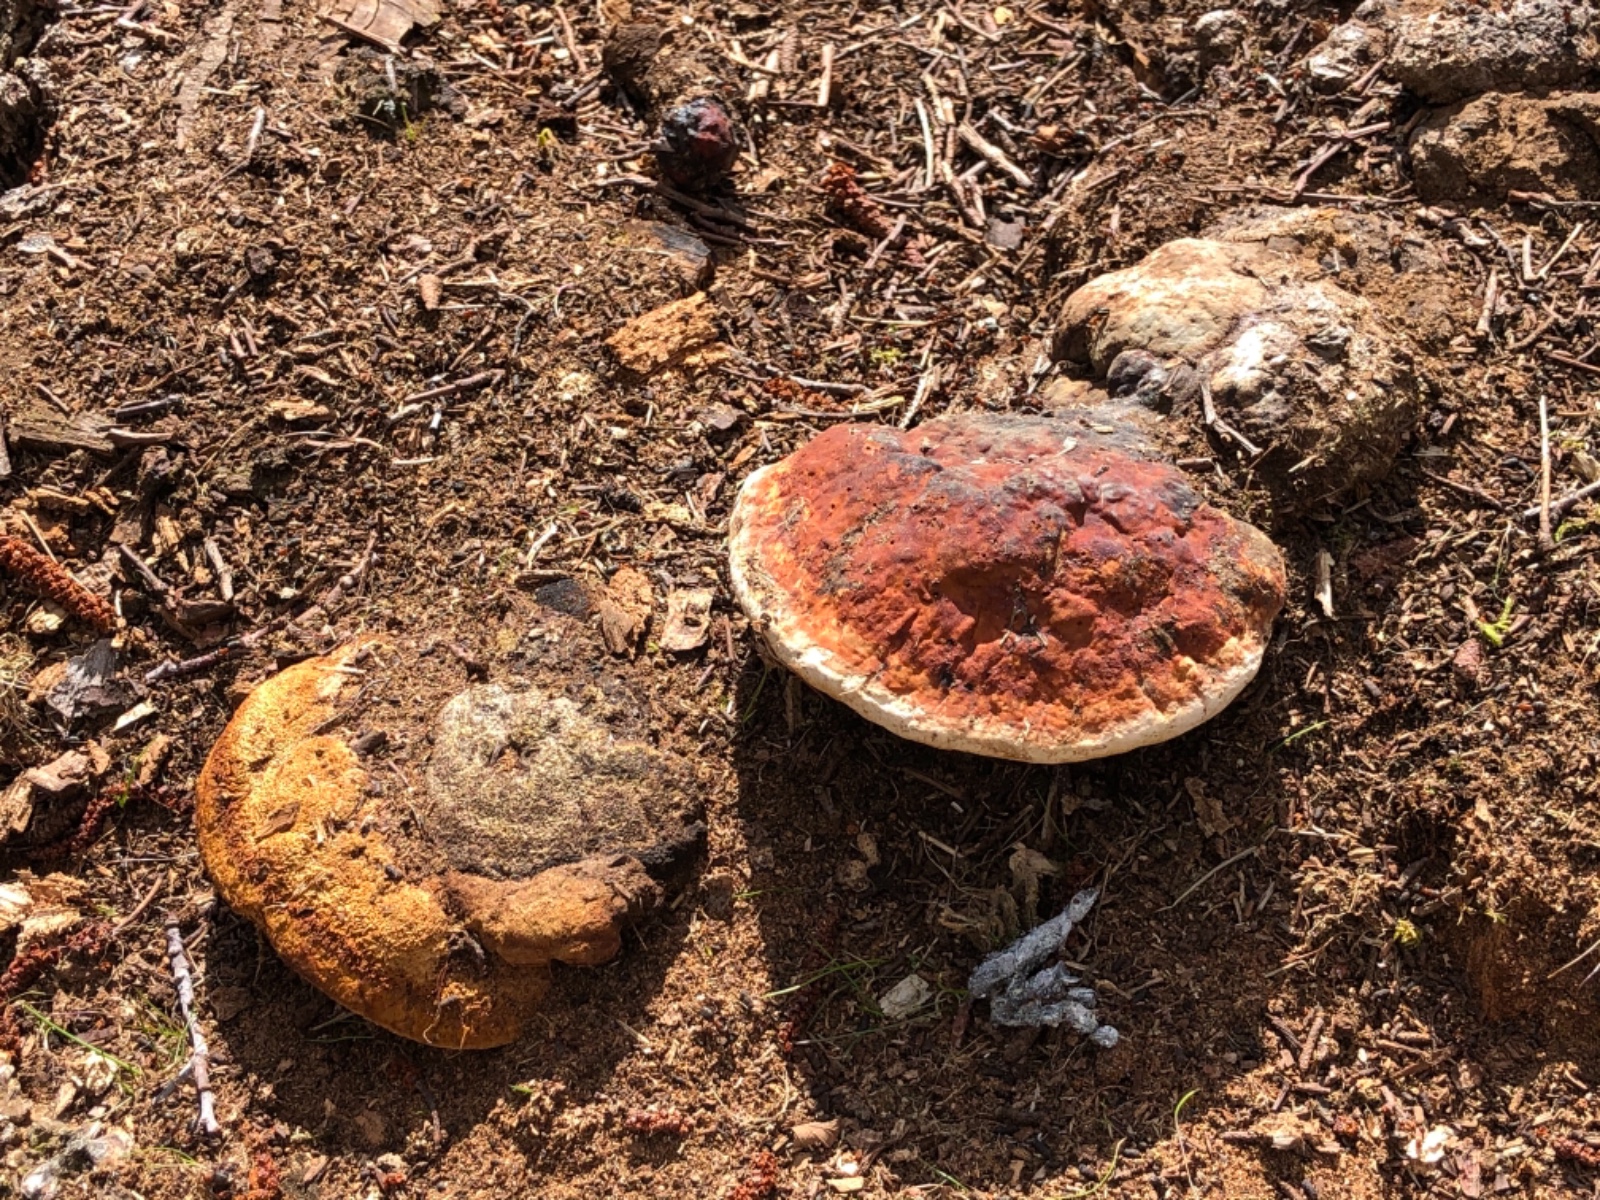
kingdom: Fungi
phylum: Basidiomycota
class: Agaricomycetes
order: Gloeophyllales
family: Gloeophyllaceae
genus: Gloeophyllum
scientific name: Gloeophyllum odoratum
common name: duftende korkhat
